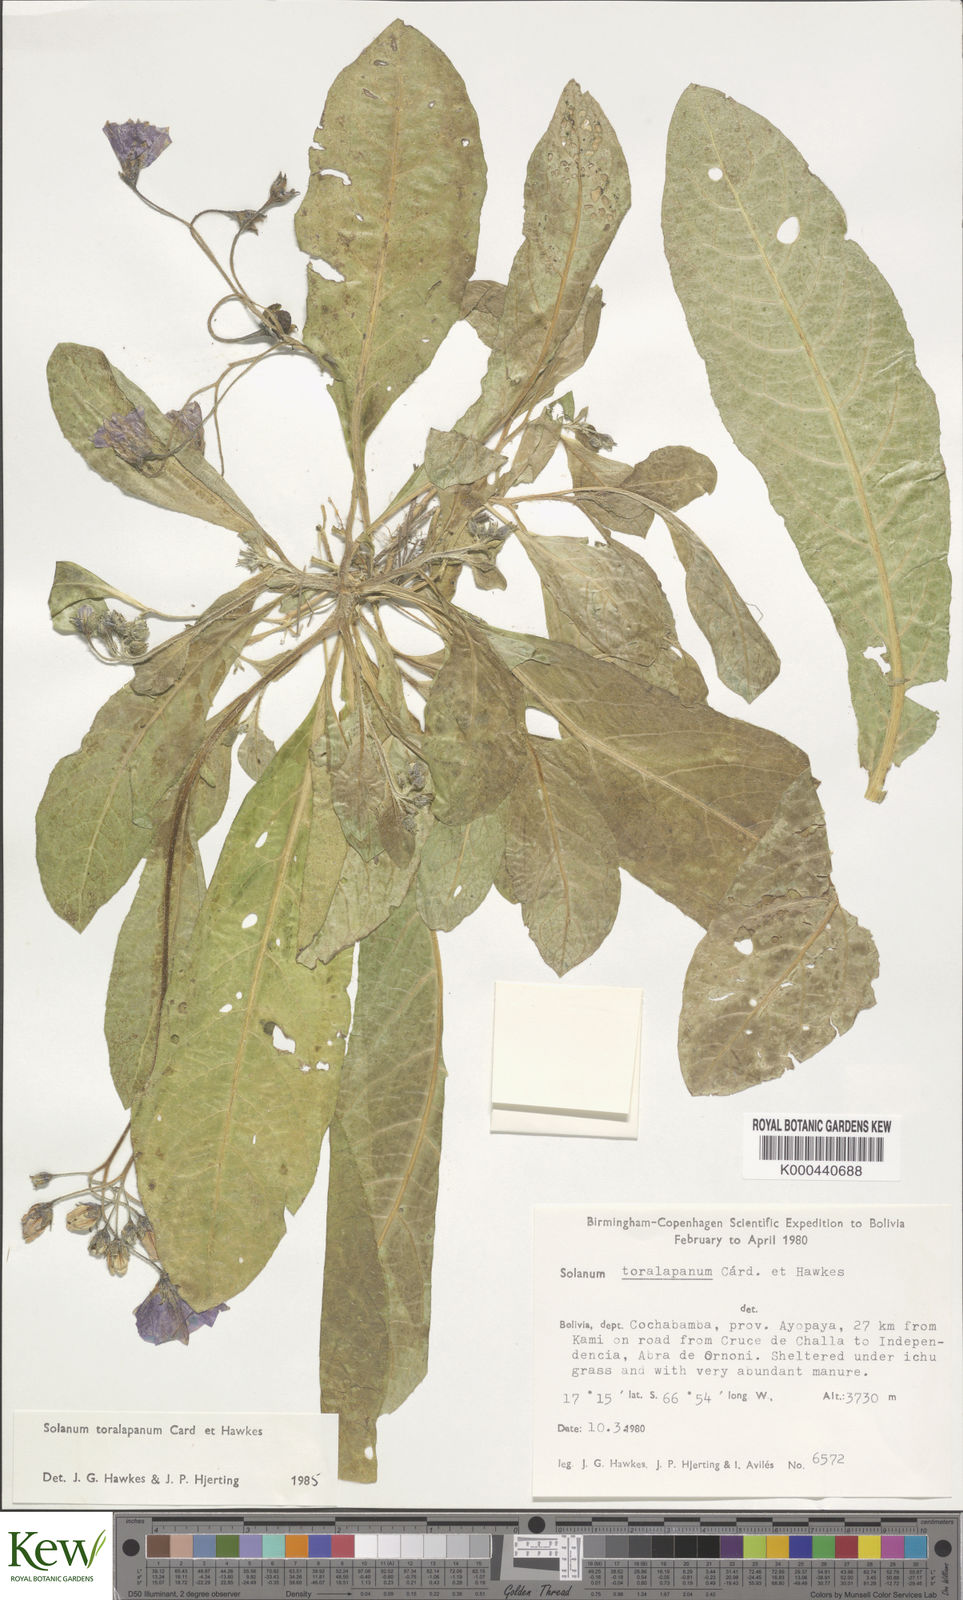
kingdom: Plantae
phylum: Tracheophyta
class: Magnoliopsida
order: Solanales
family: Solanaceae
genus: Solanum
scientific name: Solanum boliviense
